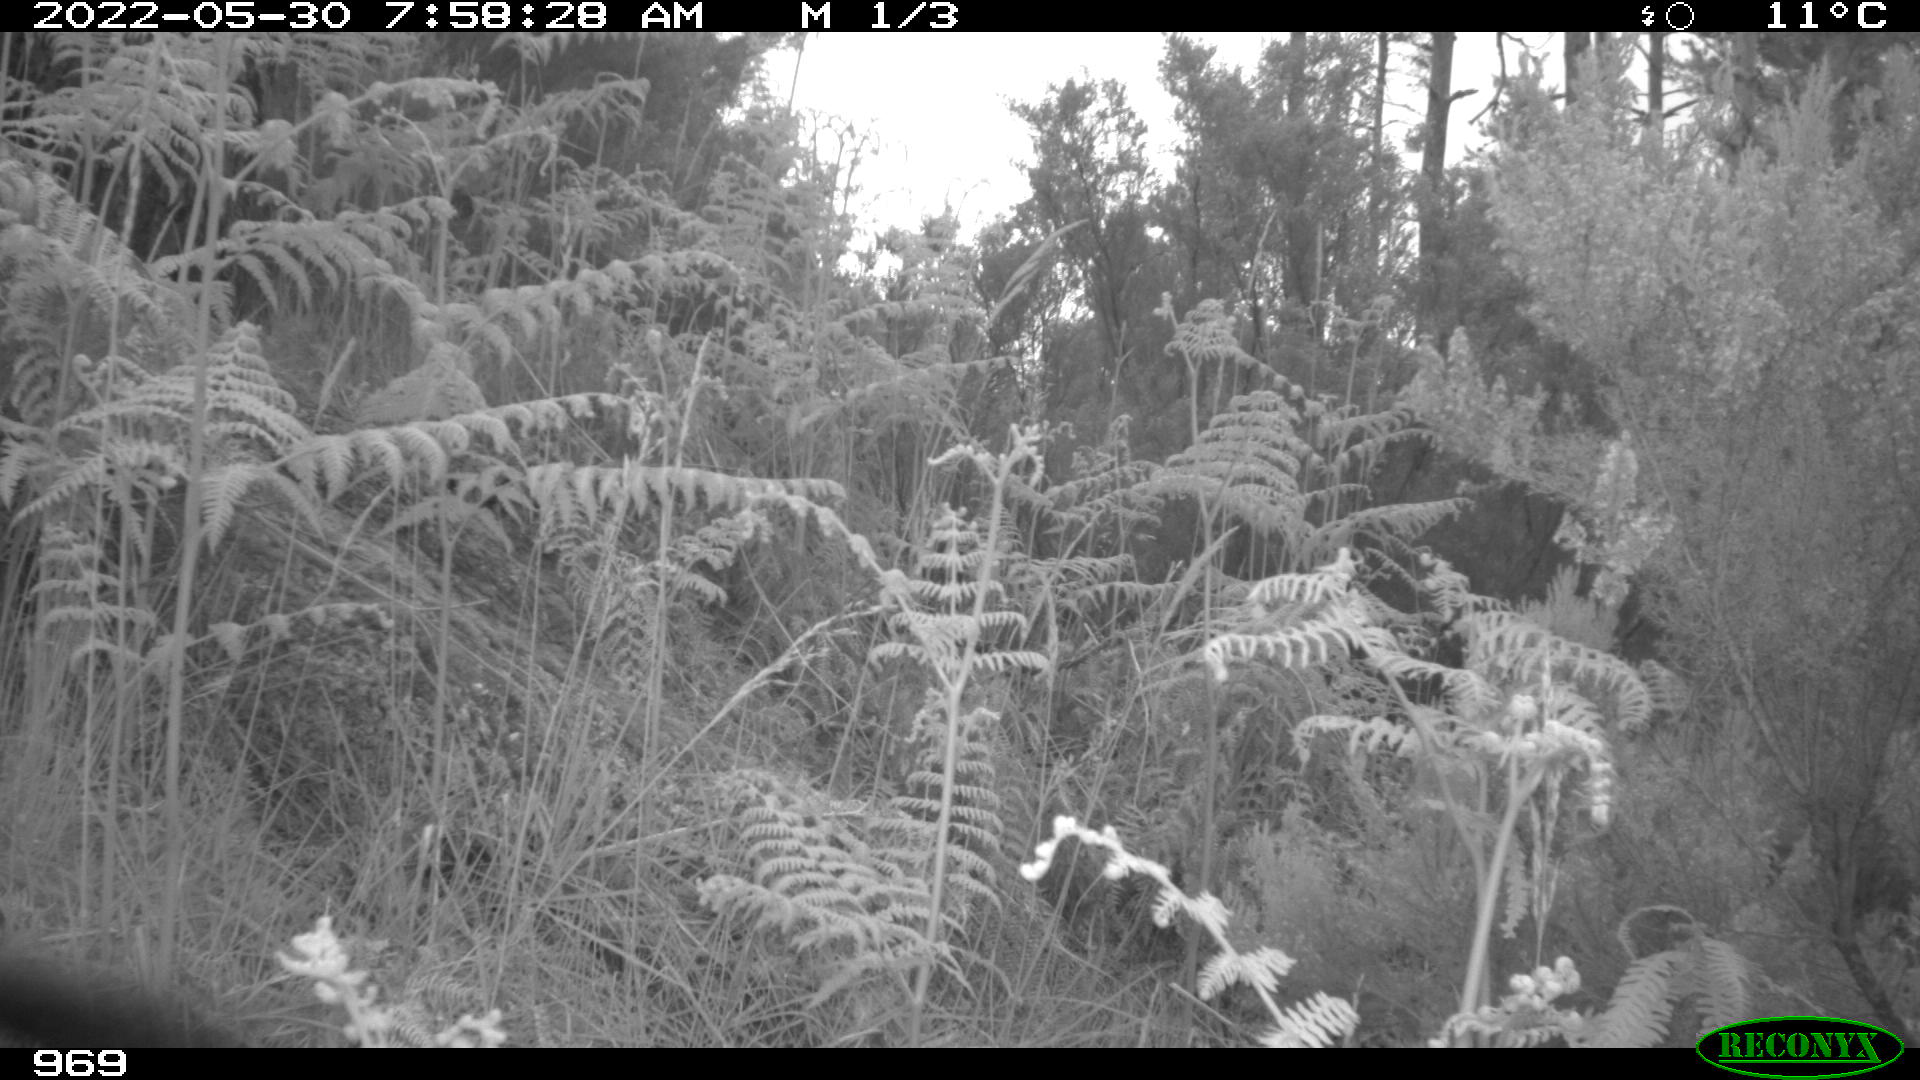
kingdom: Animalia
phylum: Chordata
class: Mammalia
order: Artiodactyla
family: Suidae
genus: Sus
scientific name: Sus scrofa
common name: Wild boar
